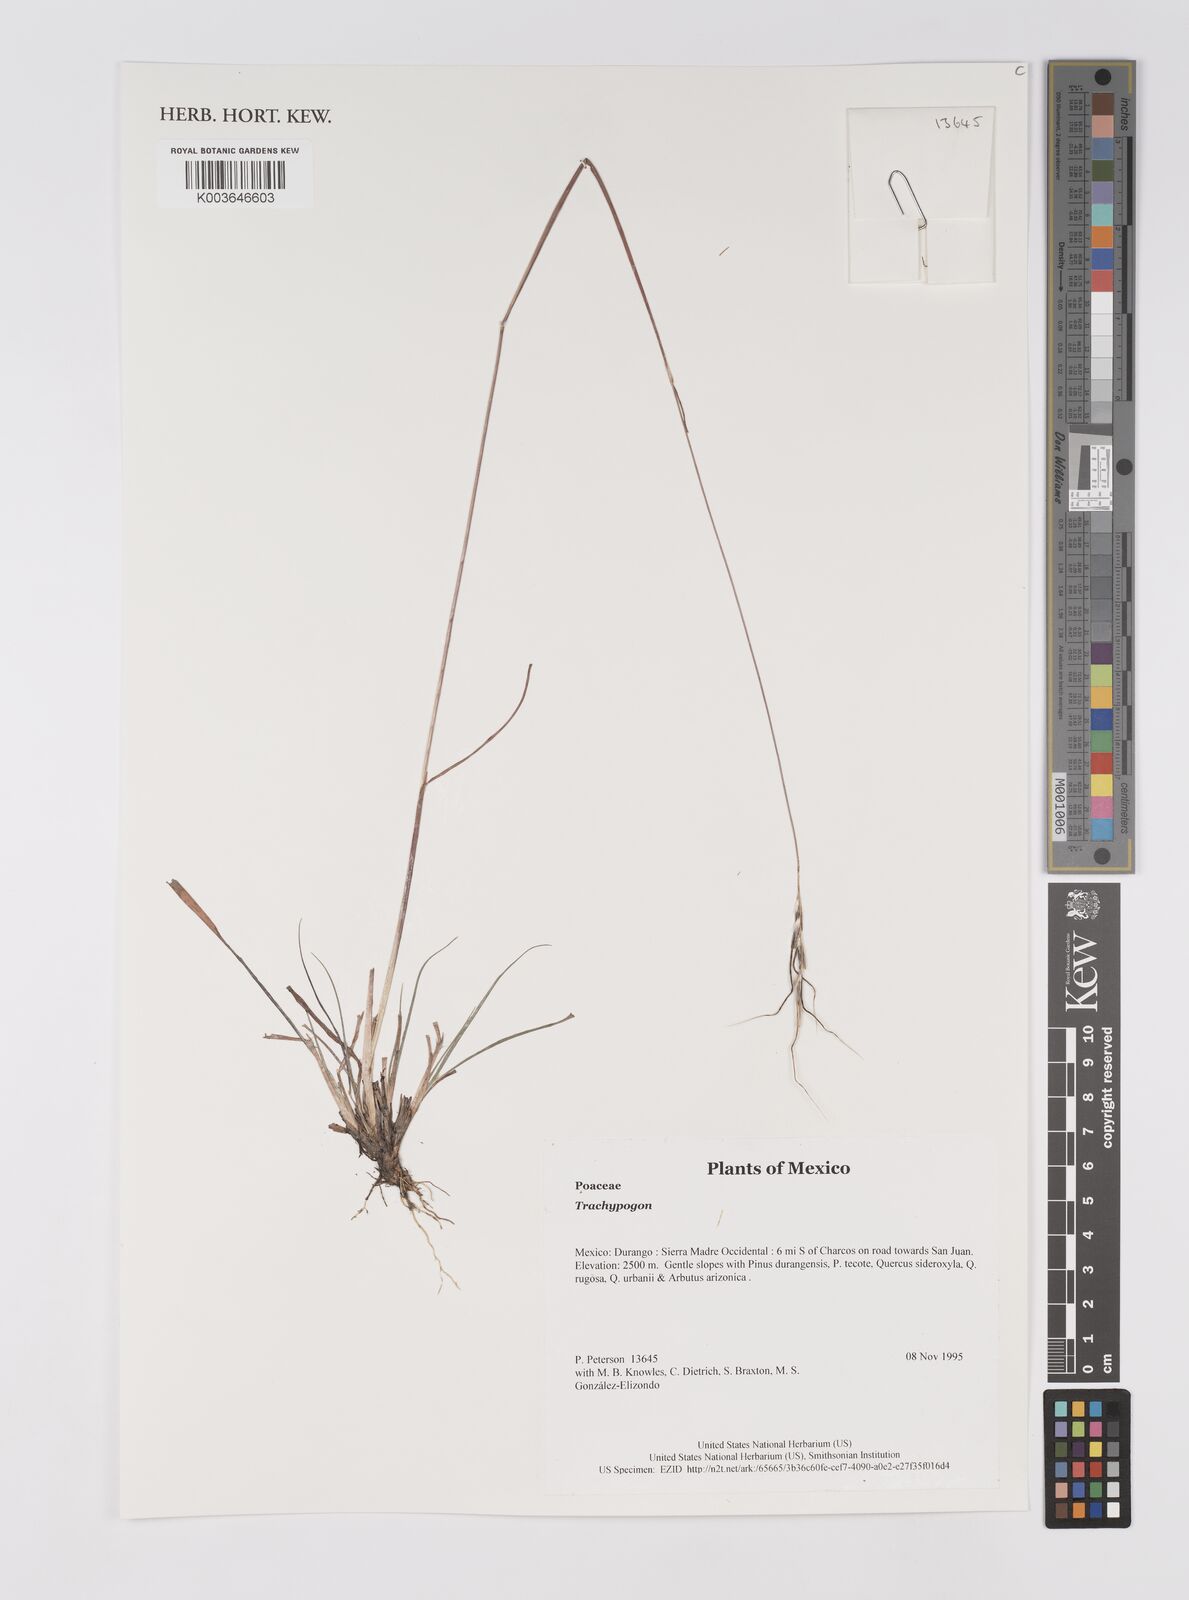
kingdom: Plantae
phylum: Tracheophyta
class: Liliopsida
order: Poales
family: Poaceae
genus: Trachypogon
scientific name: Trachypogon
